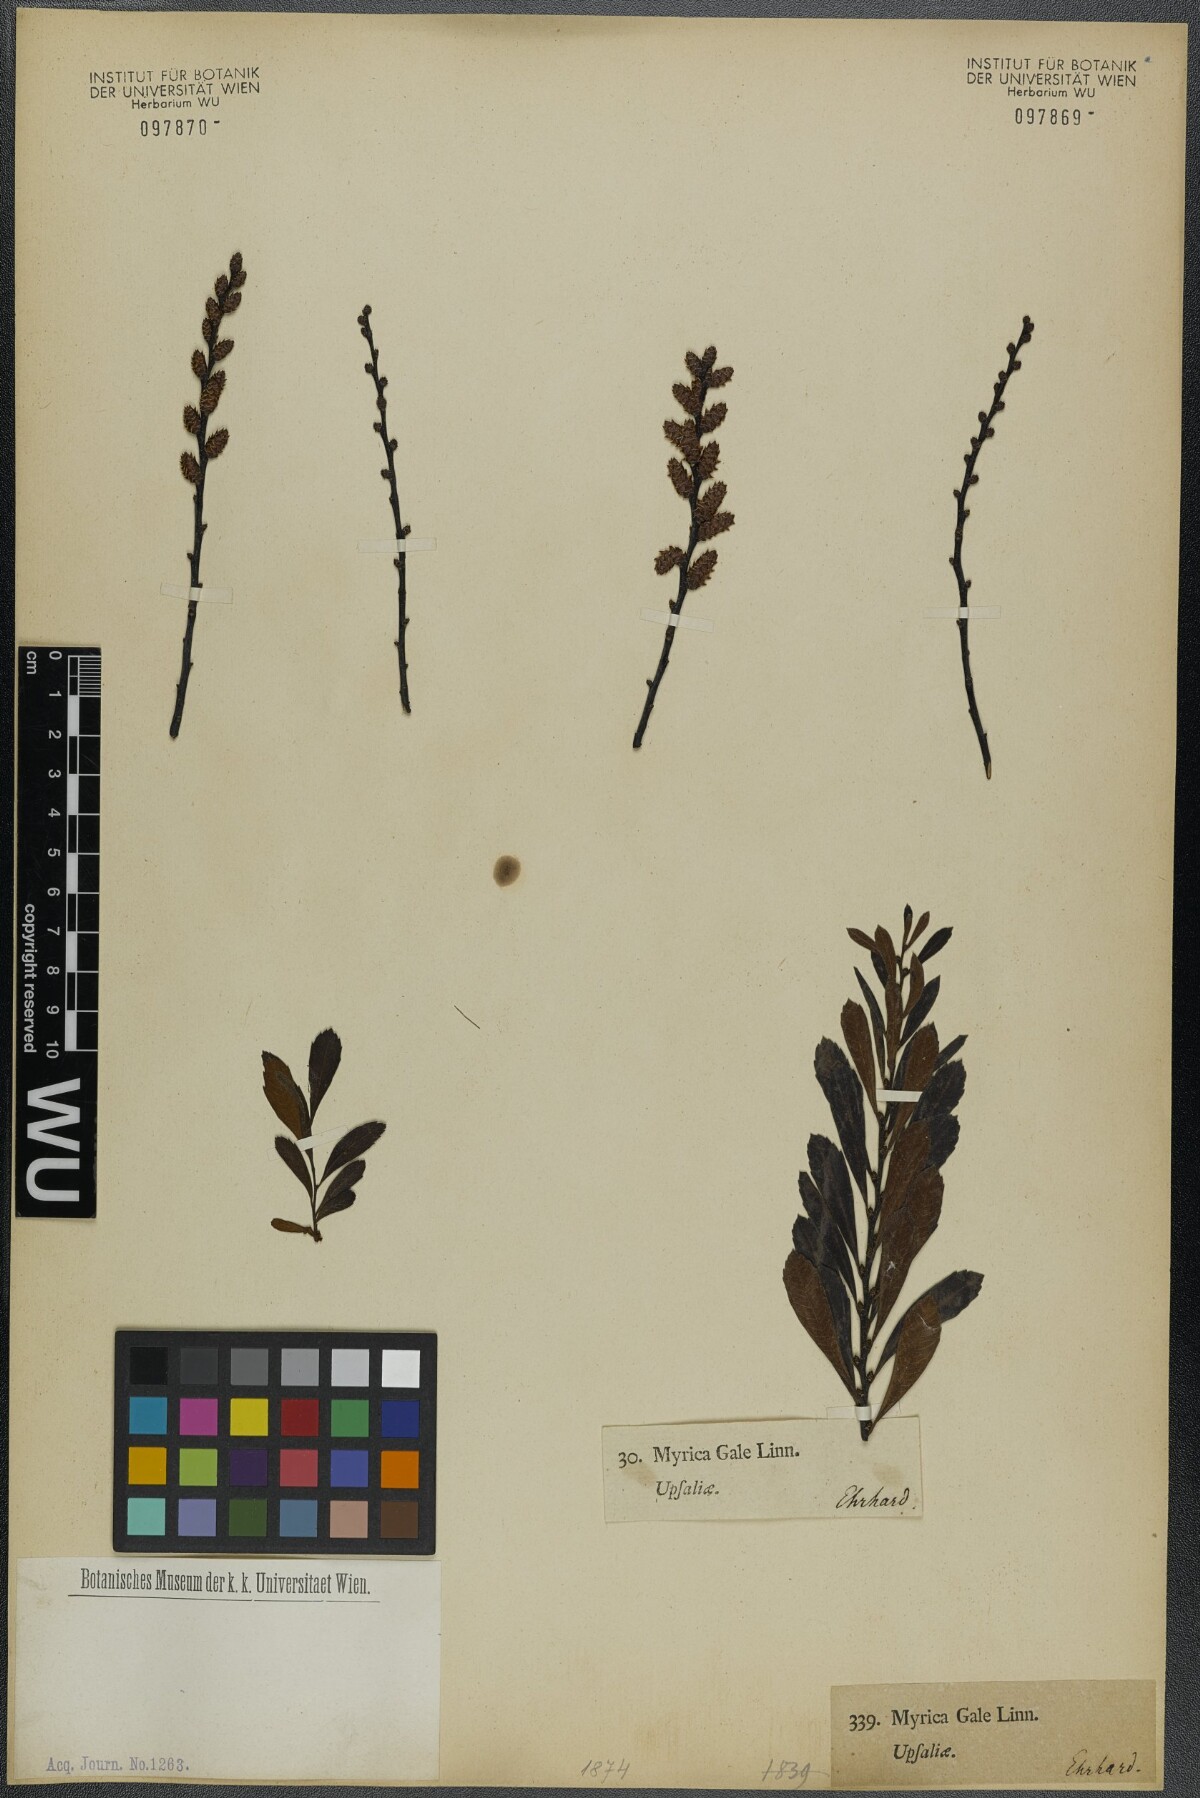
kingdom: Plantae
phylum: Tracheophyta
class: Magnoliopsida
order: Fagales
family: Myricaceae
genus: Myrica
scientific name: Myrica gale
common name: Sweet gale
